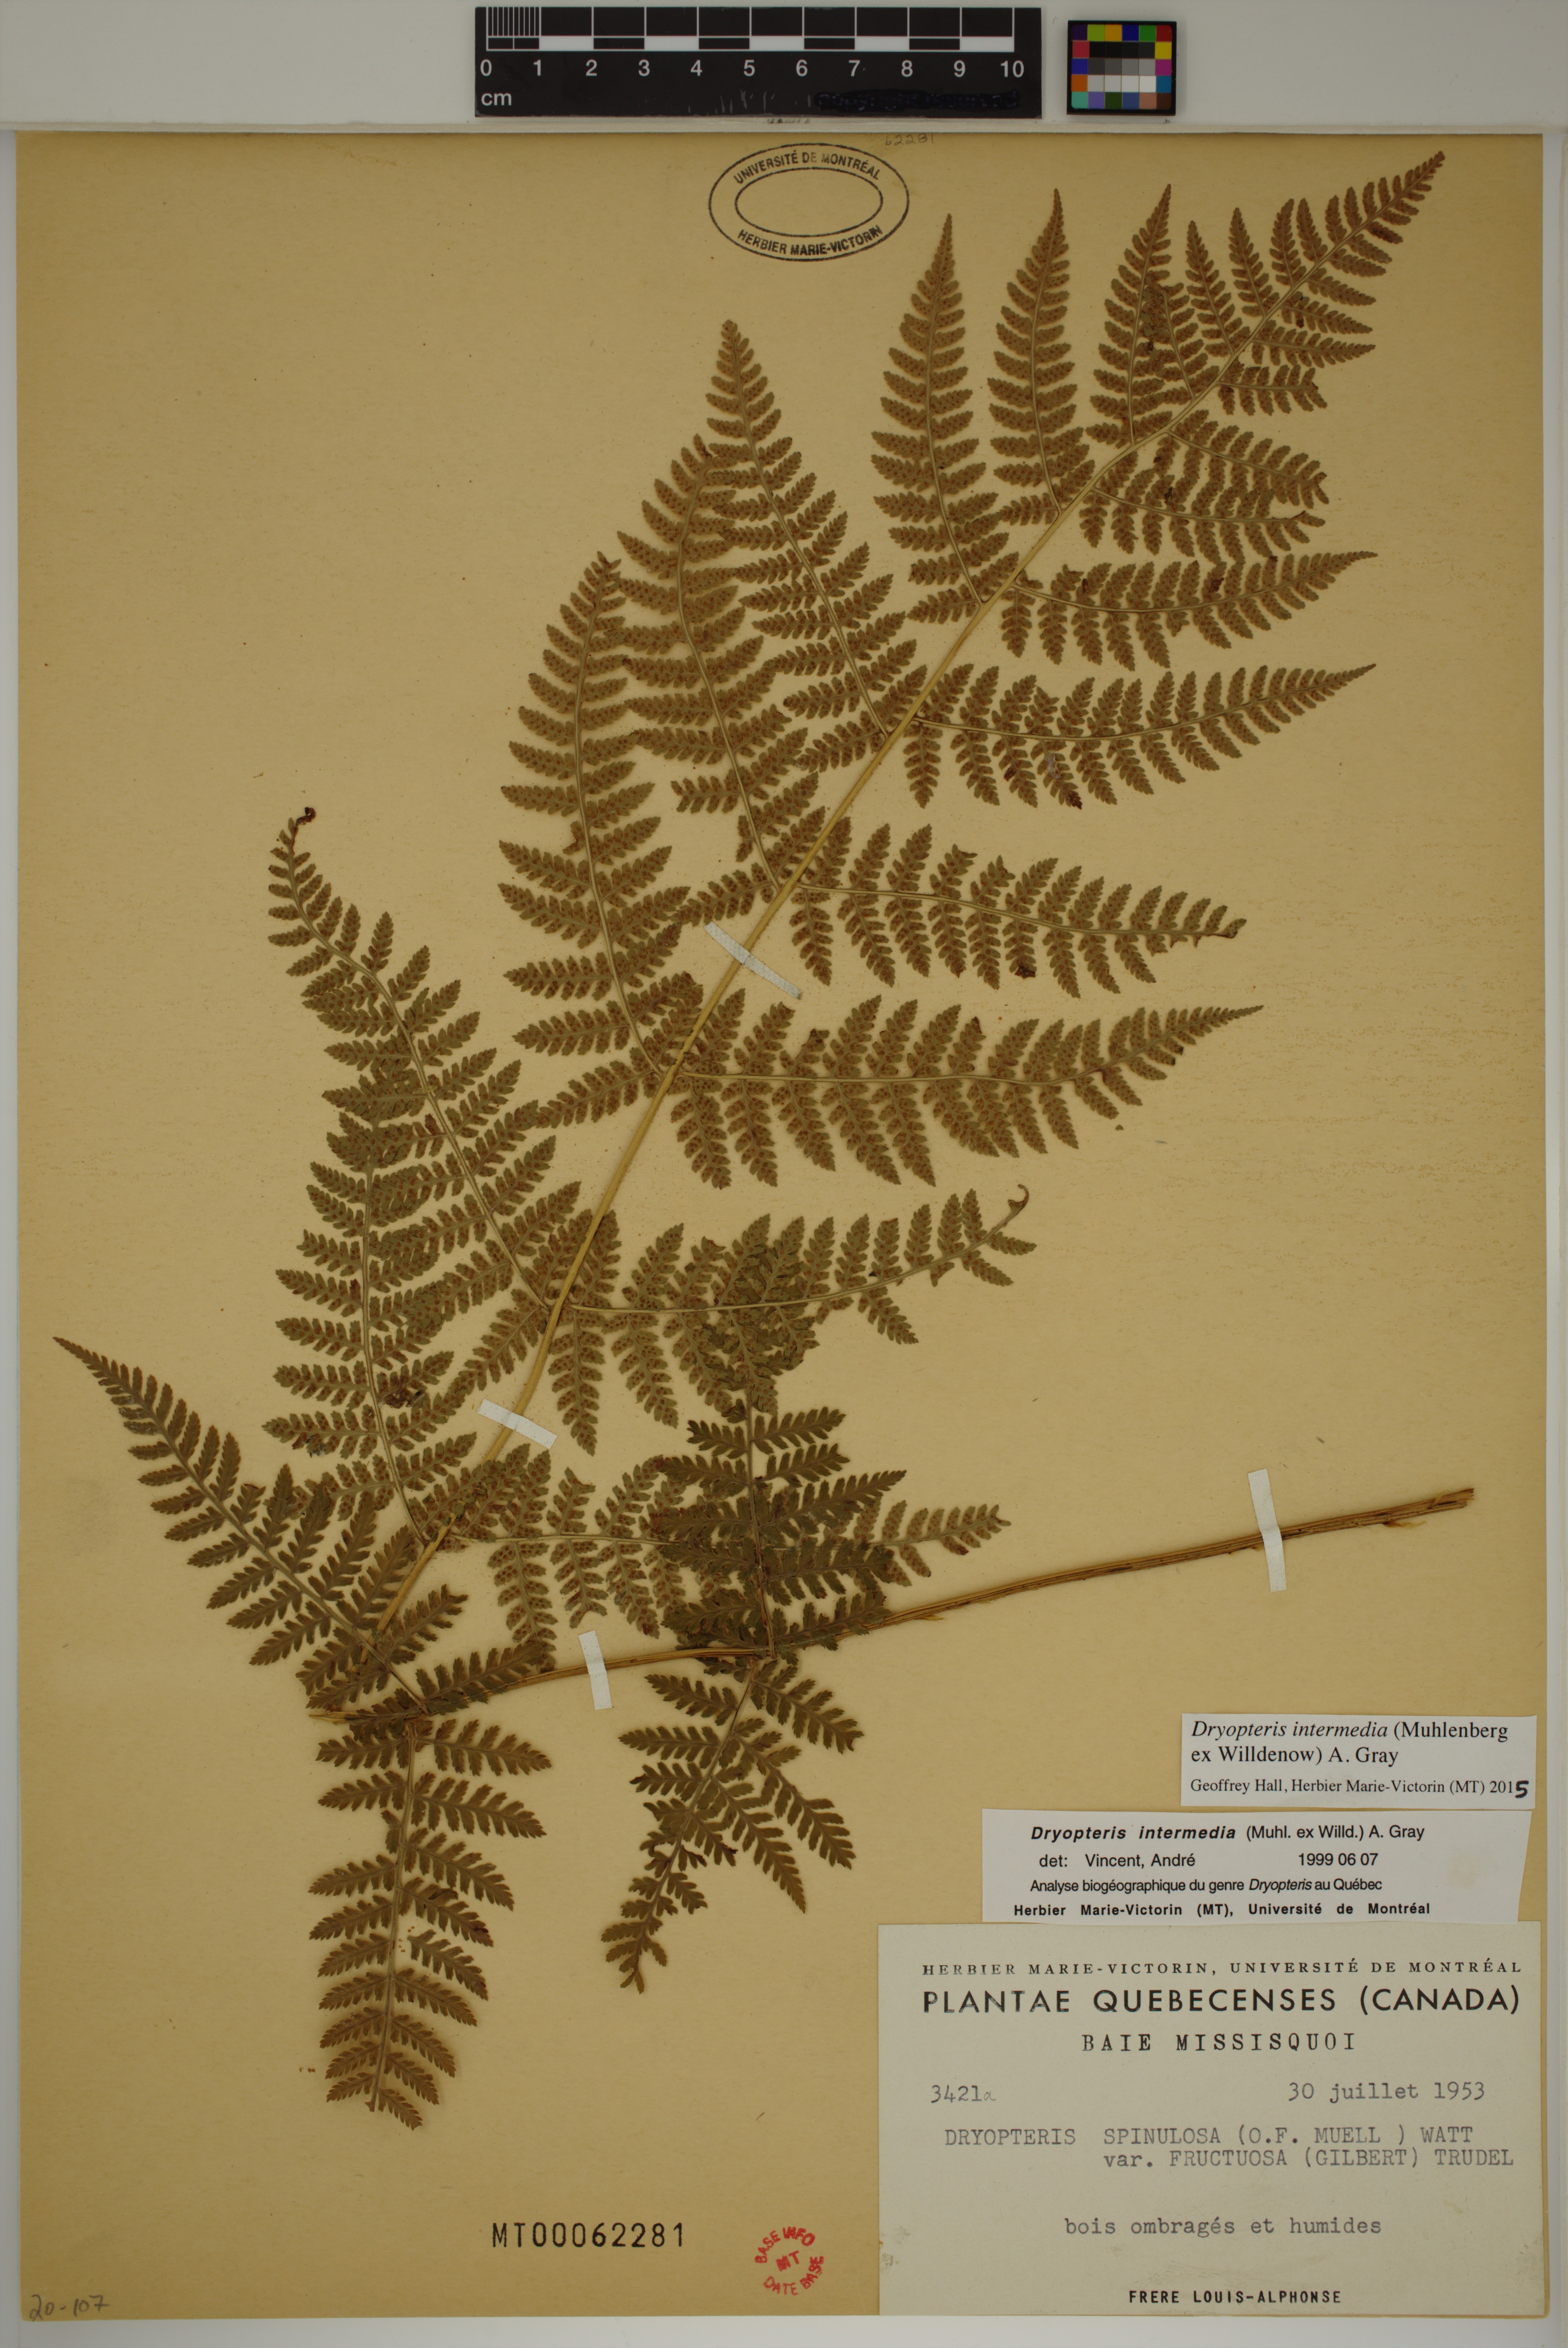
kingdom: Plantae
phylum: Tracheophyta
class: Polypodiopsida
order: Polypodiales
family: Dryopteridaceae
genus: Dryopteris
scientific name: Dryopteris intermedia
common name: Evergreen wood fern
